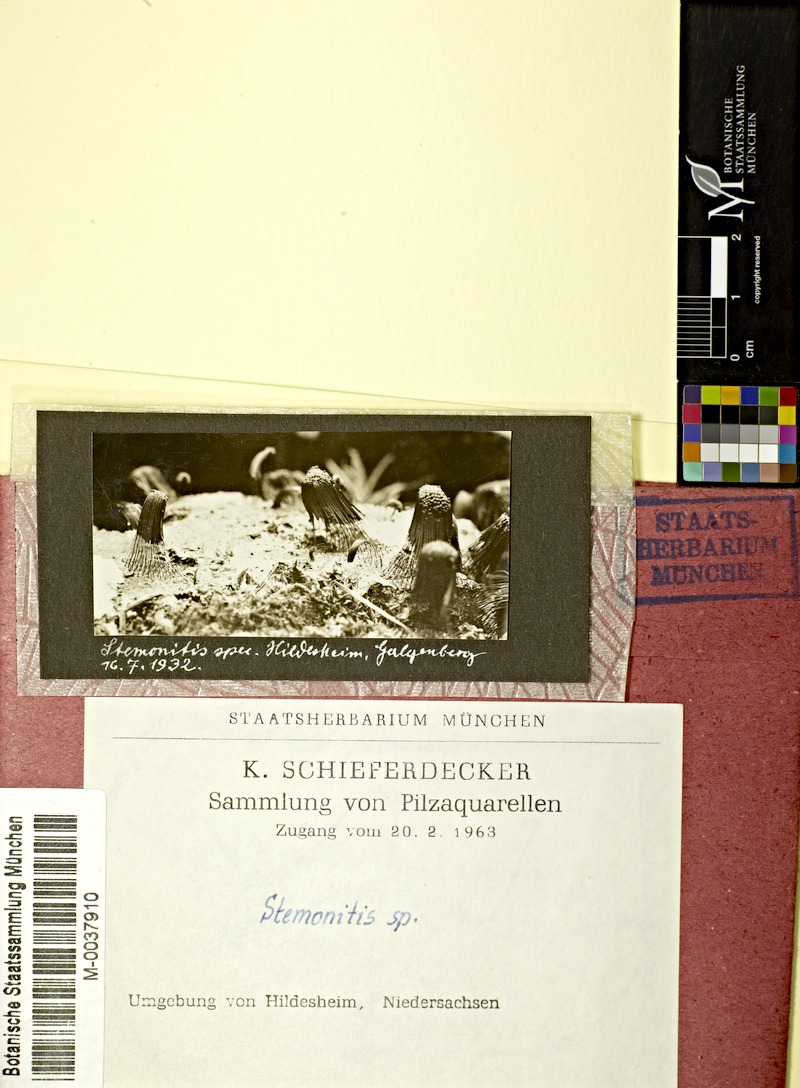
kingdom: Protozoa
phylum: Mycetozoa
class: Myxomycetes
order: Stemonitidales
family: Stemonitidaceae
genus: Stemonitis
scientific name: Stemonitis
